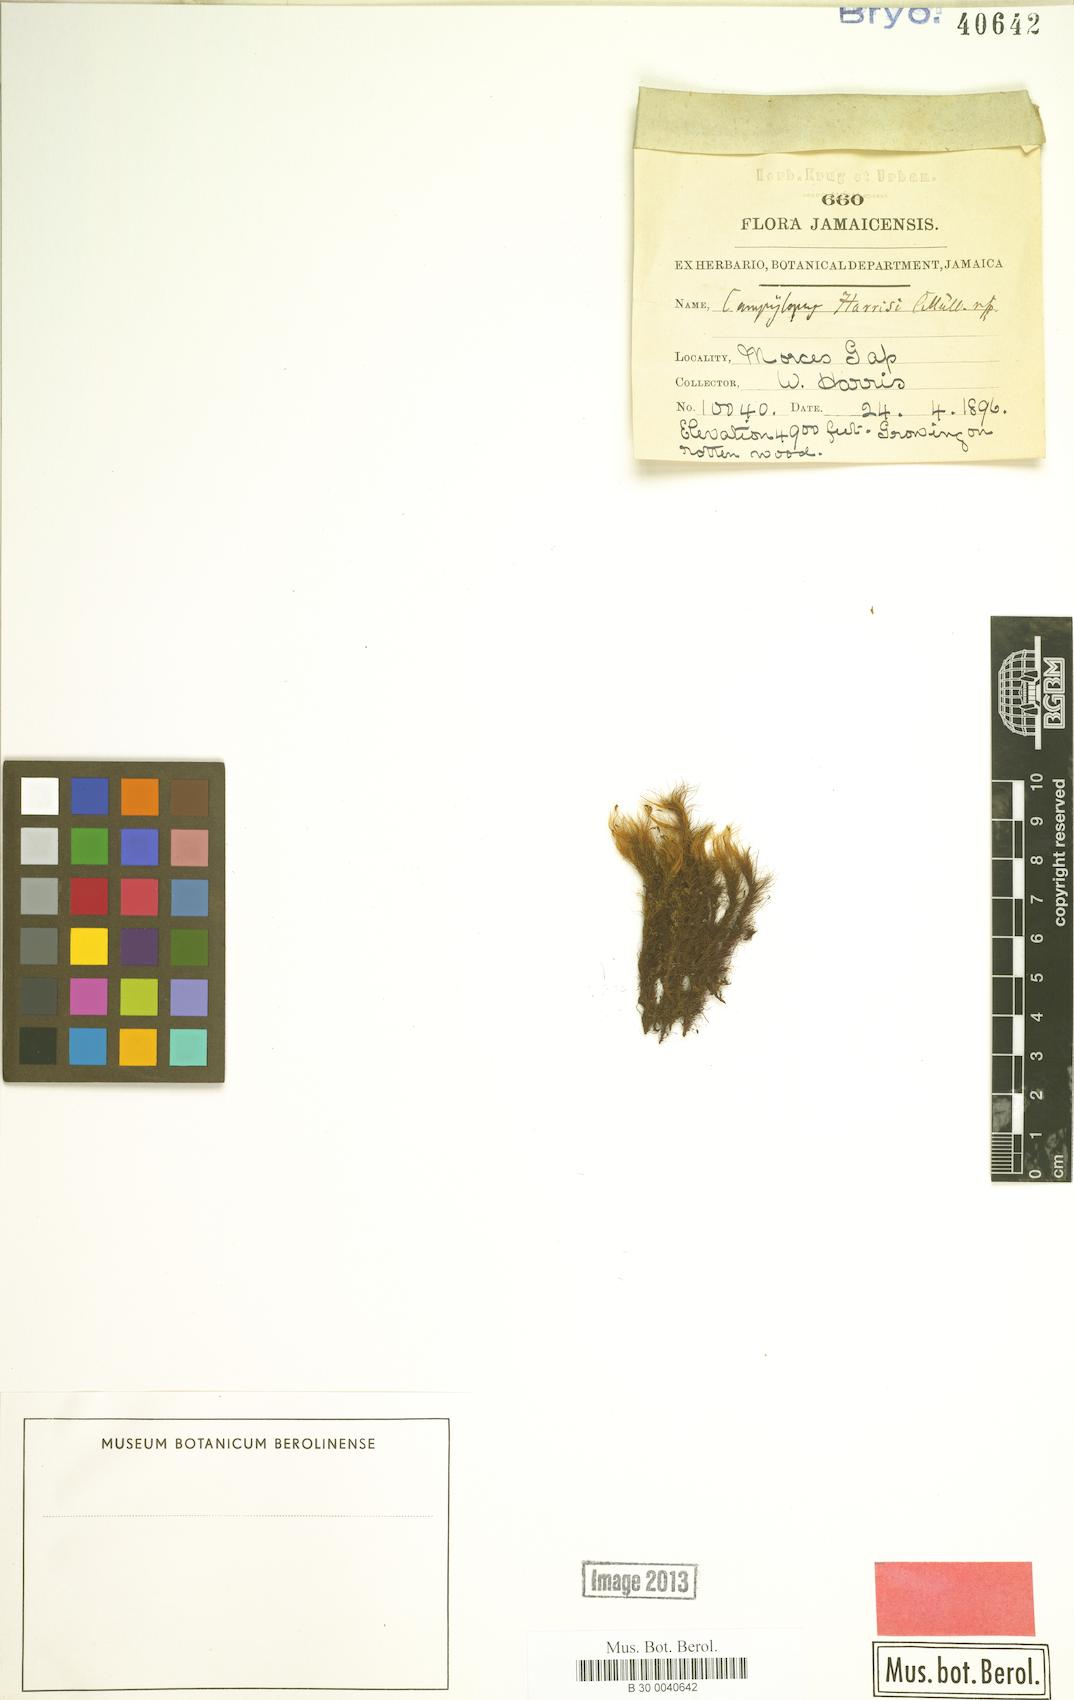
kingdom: Plantae
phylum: Bryophyta
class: Bryopsida
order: Dicranales
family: Leucobryaceae
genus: Campylopus
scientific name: Campylopus cubensis
